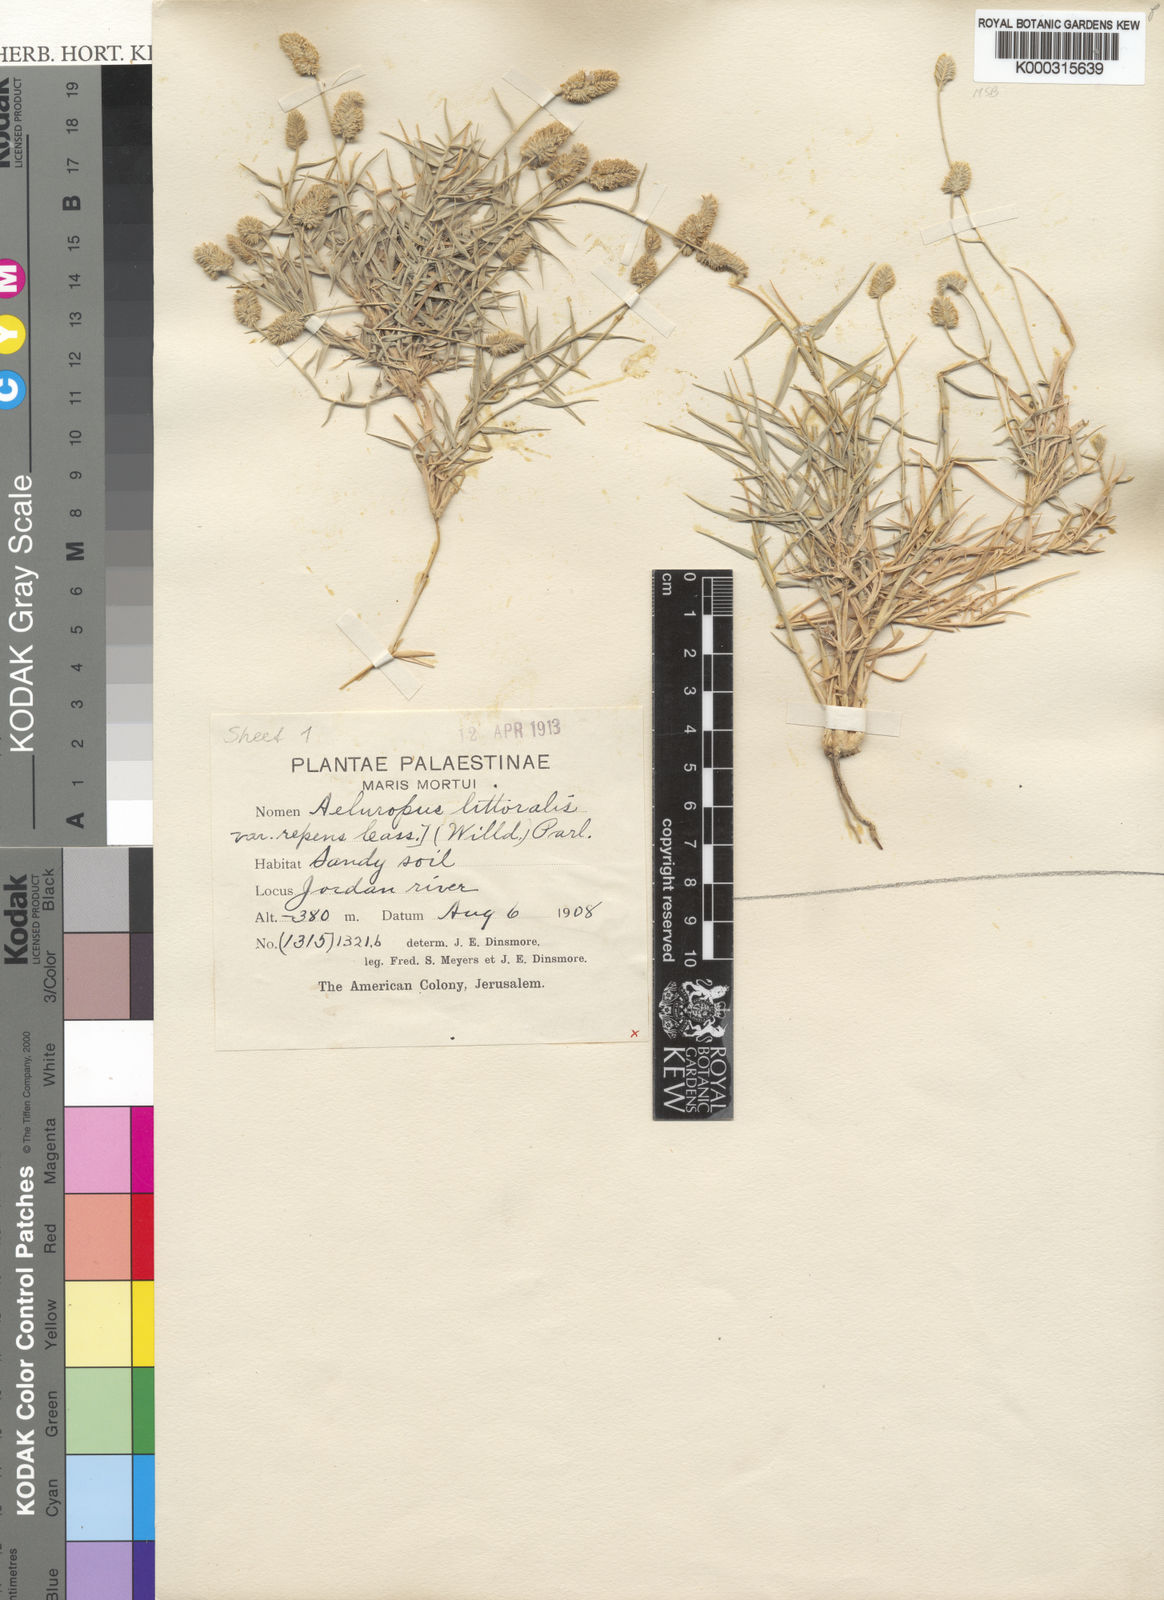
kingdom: Plantae
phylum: Tracheophyta
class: Liliopsida
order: Poales
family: Poaceae
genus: Aeluropus
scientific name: Aeluropus lagopoides
